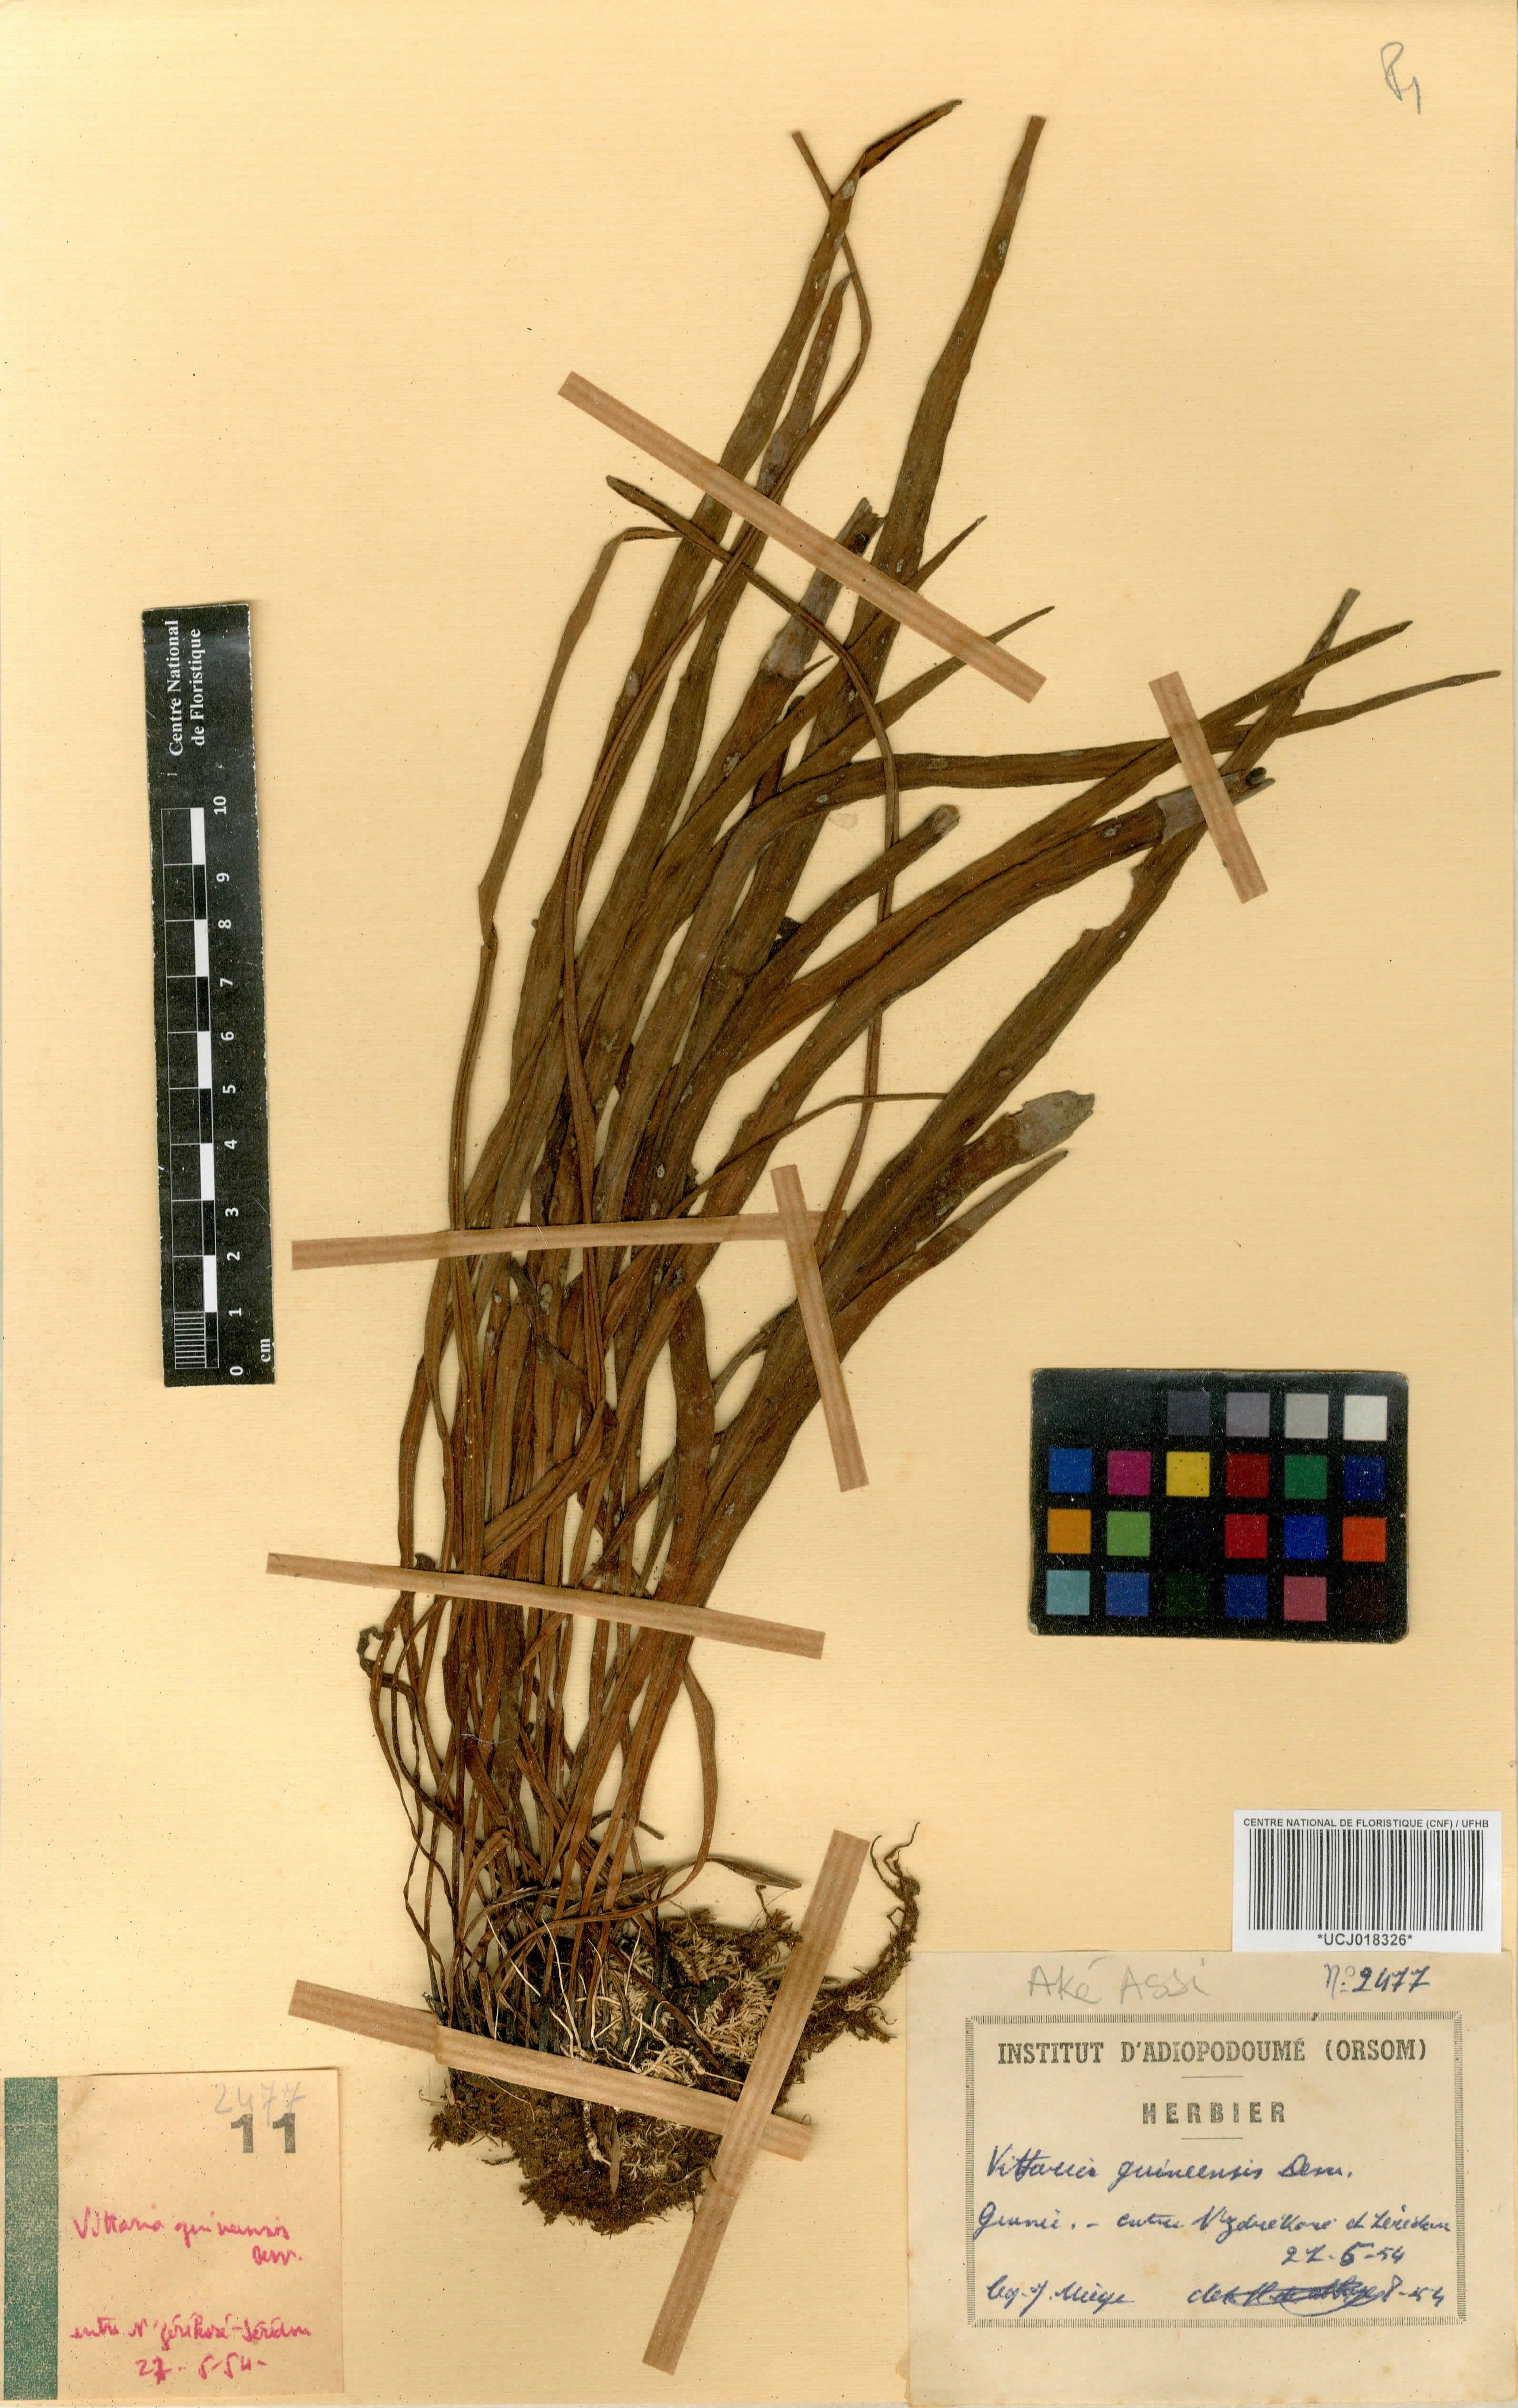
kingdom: Plantae
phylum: Tracheophyta
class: Polypodiopsida
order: Polypodiales
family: Pteridaceae
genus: Haplopteris
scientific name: Haplopteris guineensis
